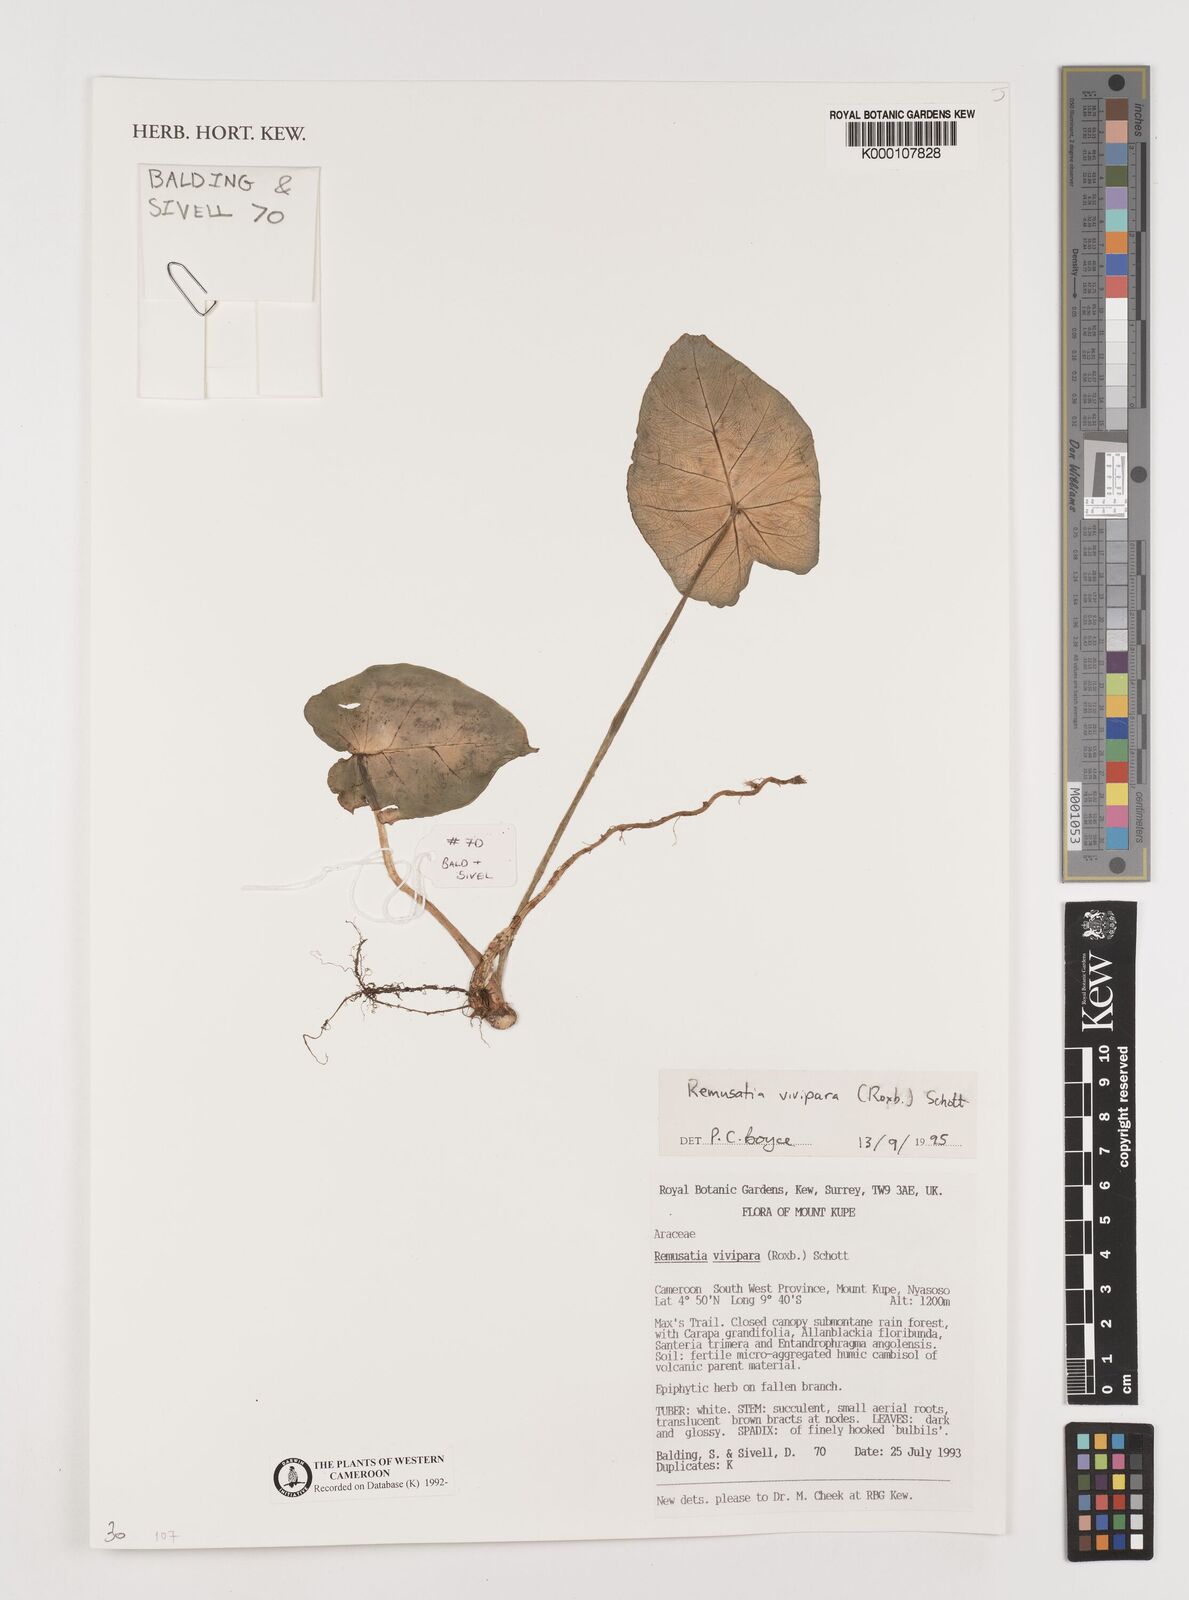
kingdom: Plantae
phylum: Tracheophyta
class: Liliopsida
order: Alismatales
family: Araceae
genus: Remusatia
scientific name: Remusatia vivipara
